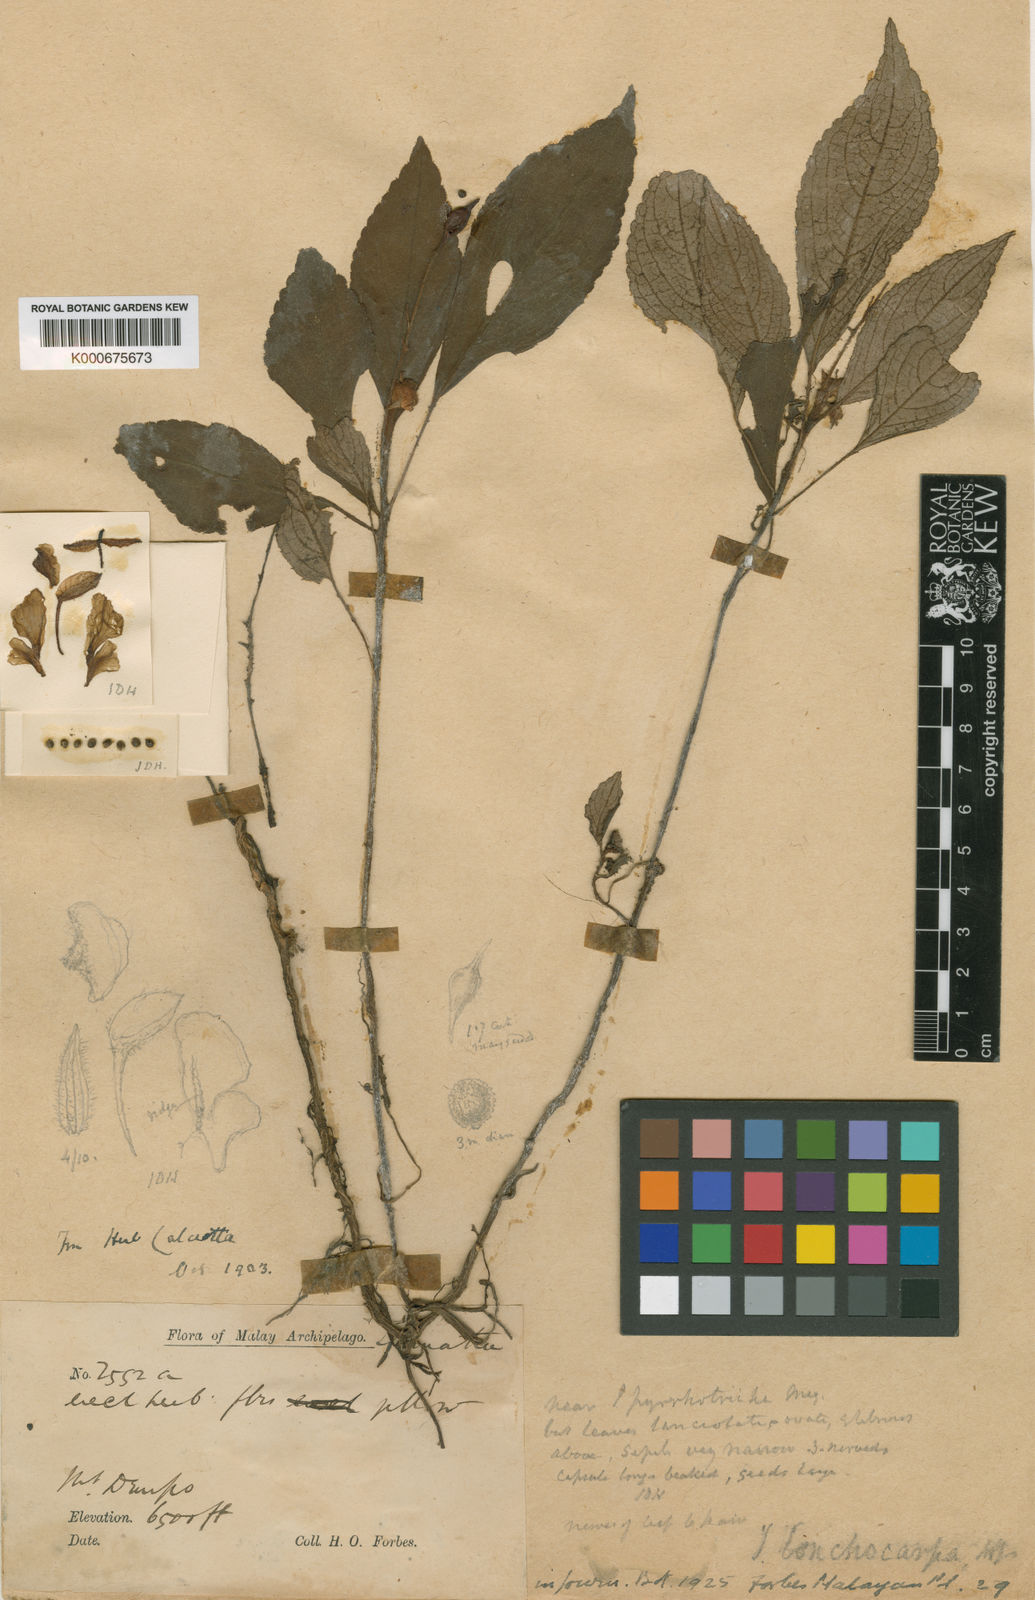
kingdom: Plantae
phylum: Tracheophyta
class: Magnoliopsida
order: Ericales
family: Balsaminaceae
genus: Impatiens
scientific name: Impatiens
